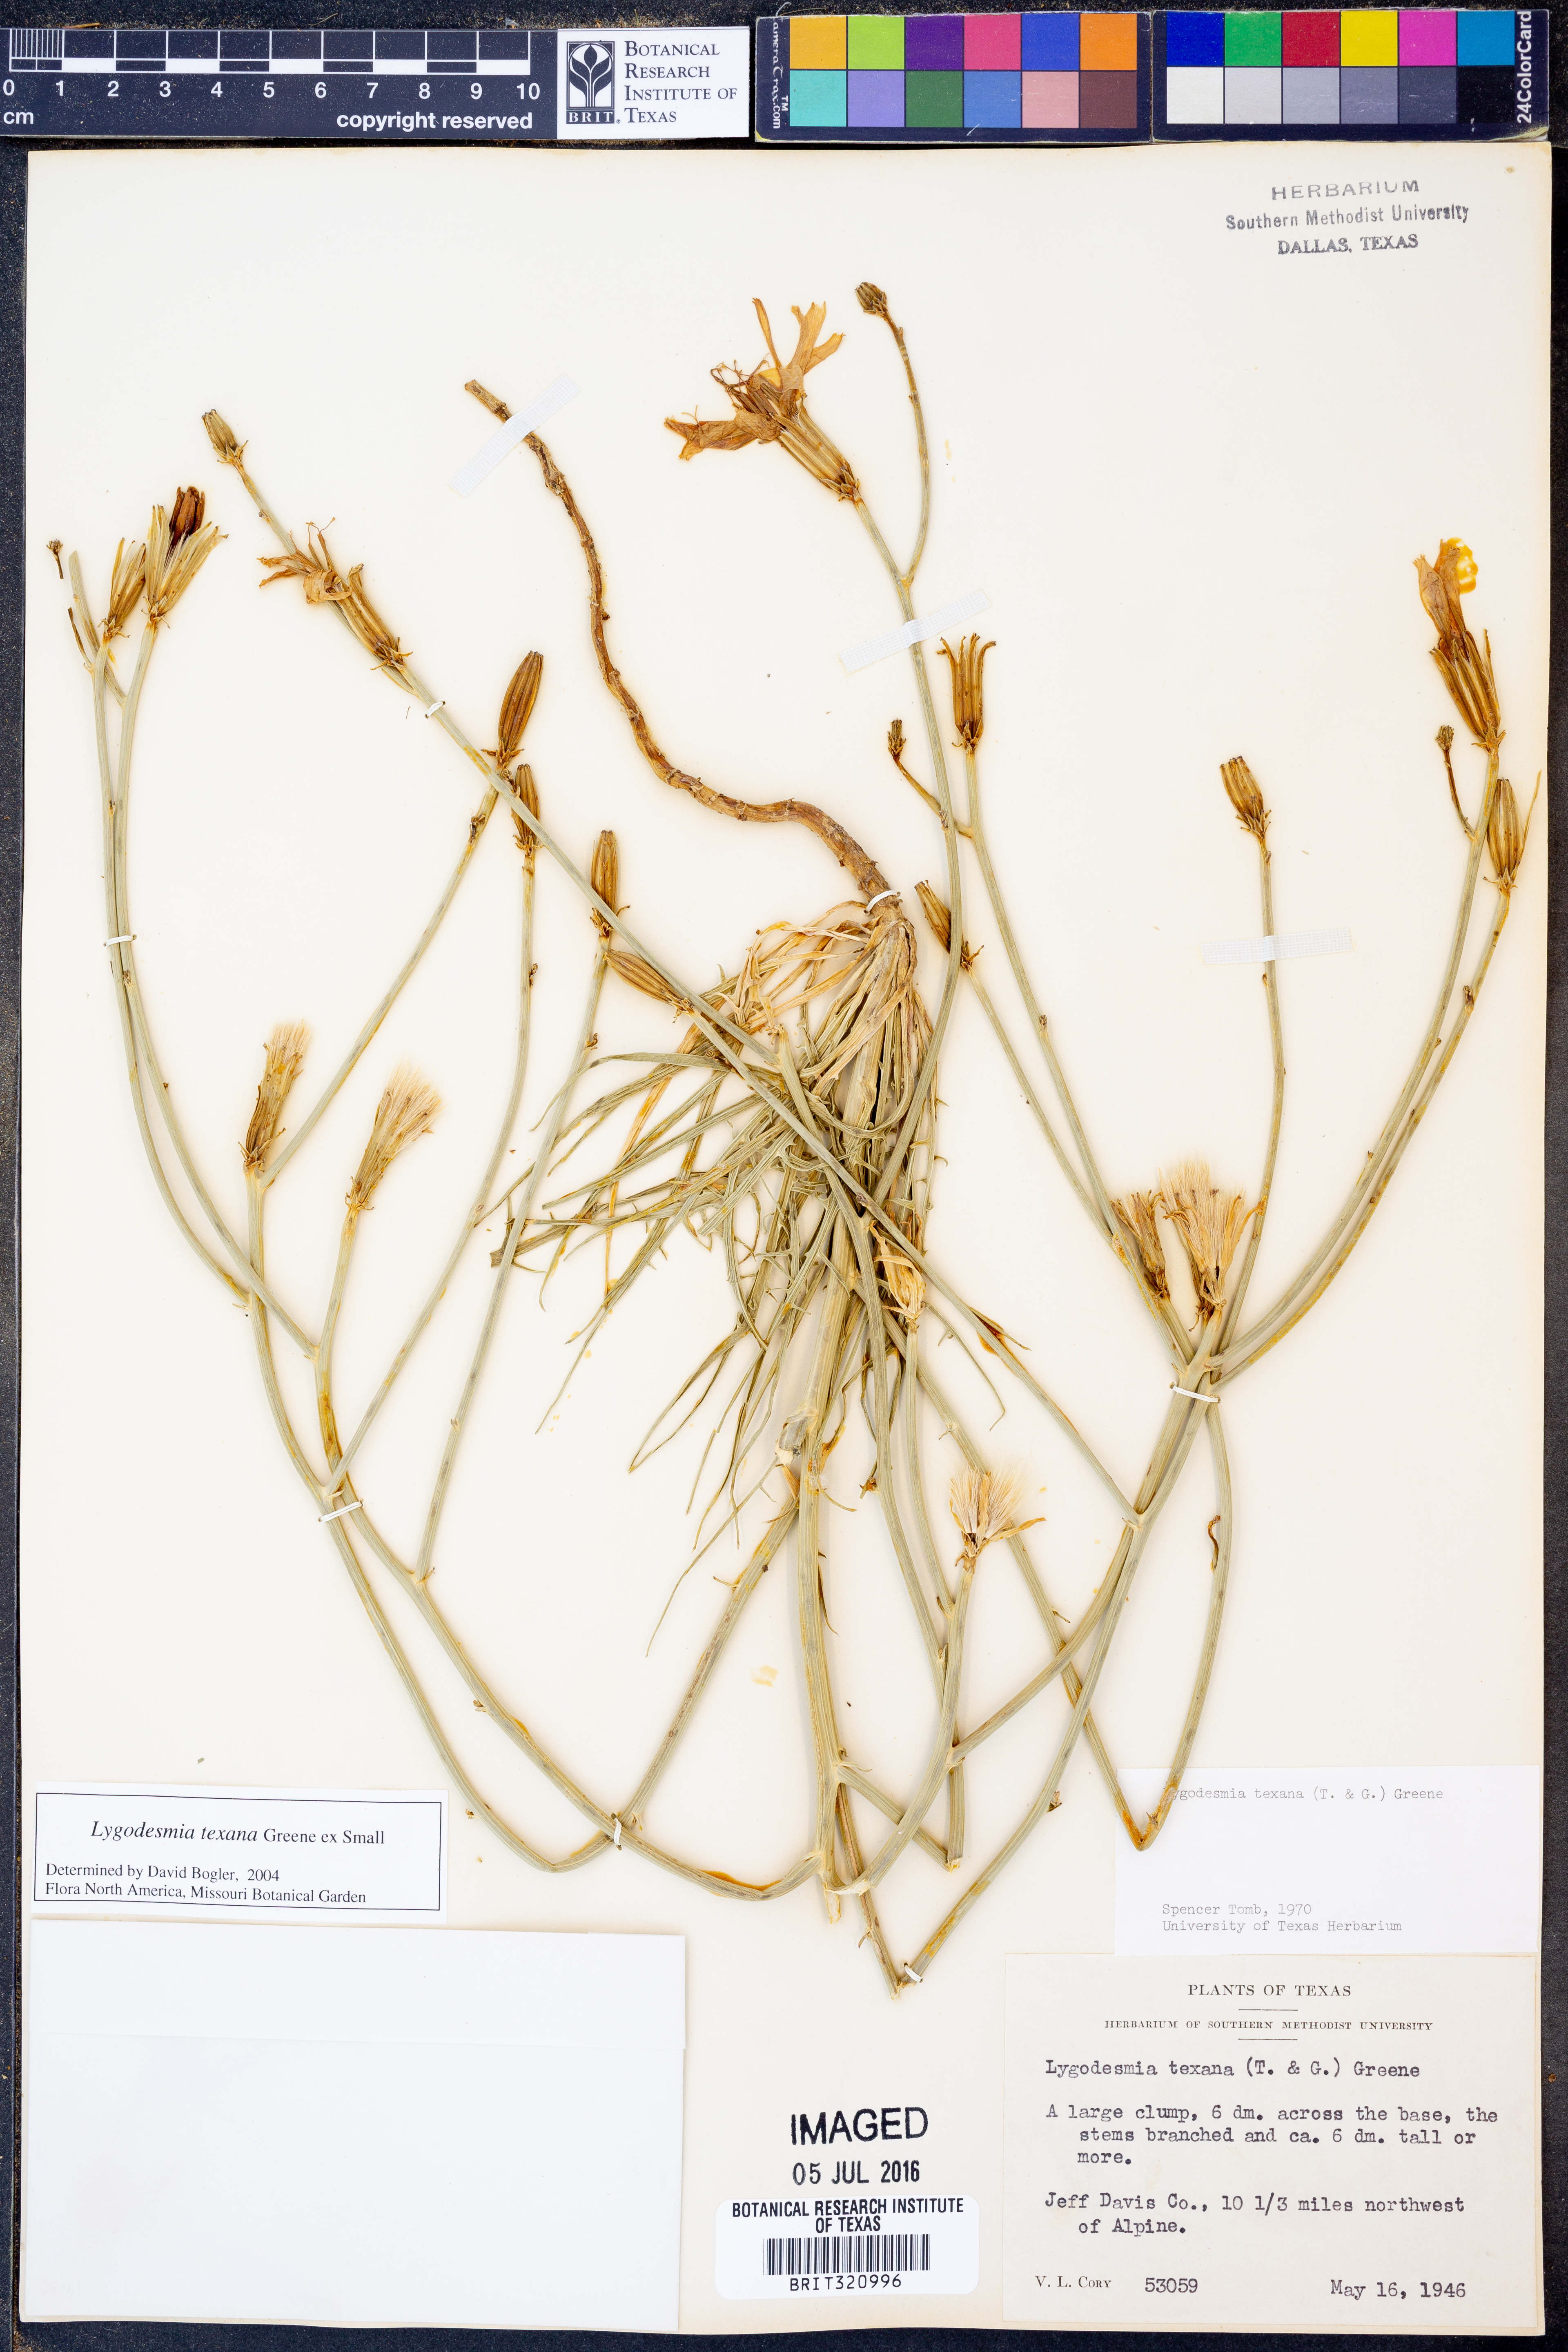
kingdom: Plantae
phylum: Tracheophyta
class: Magnoliopsida
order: Asterales
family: Asteraceae
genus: Lygodesmia
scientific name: Lygodesmia texana
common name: Texas skeleton-plant
